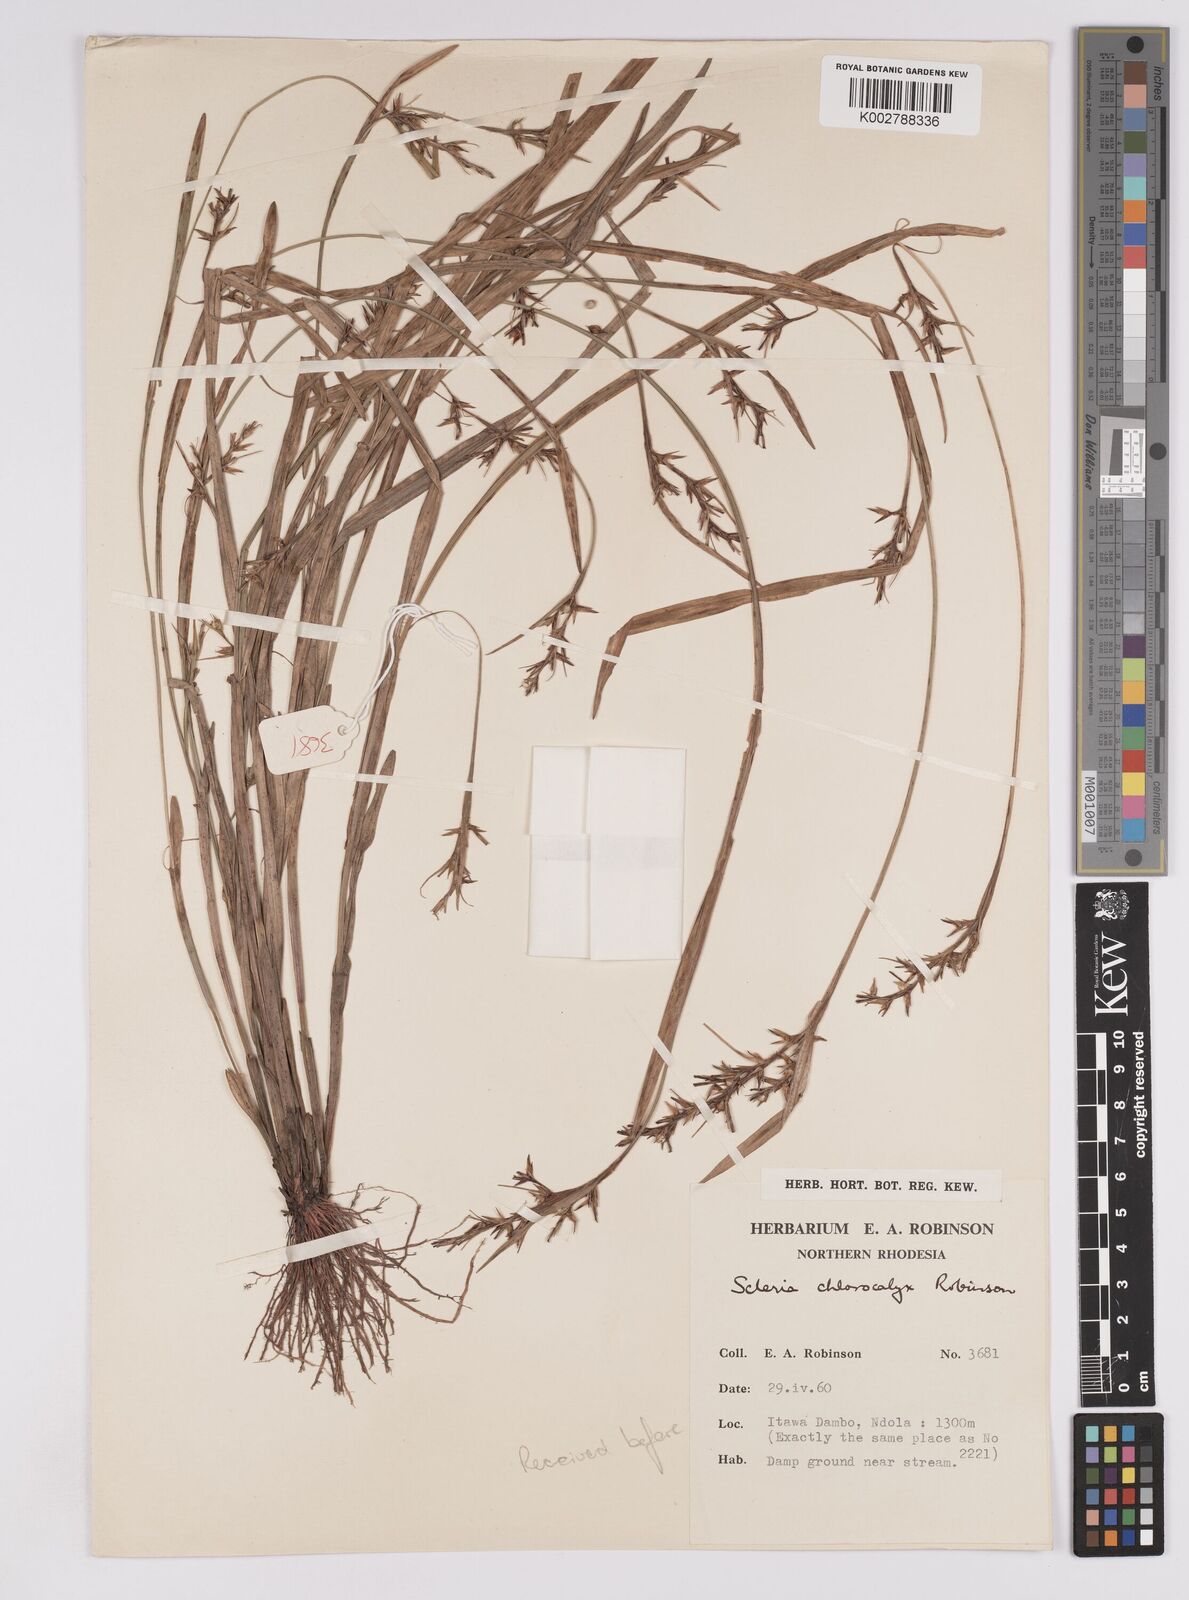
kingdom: Plantae
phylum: Tracheophyta
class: Liliopsida
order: Poales
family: Cyperaceae
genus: Scleria
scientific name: Scleria chlorocalyx
